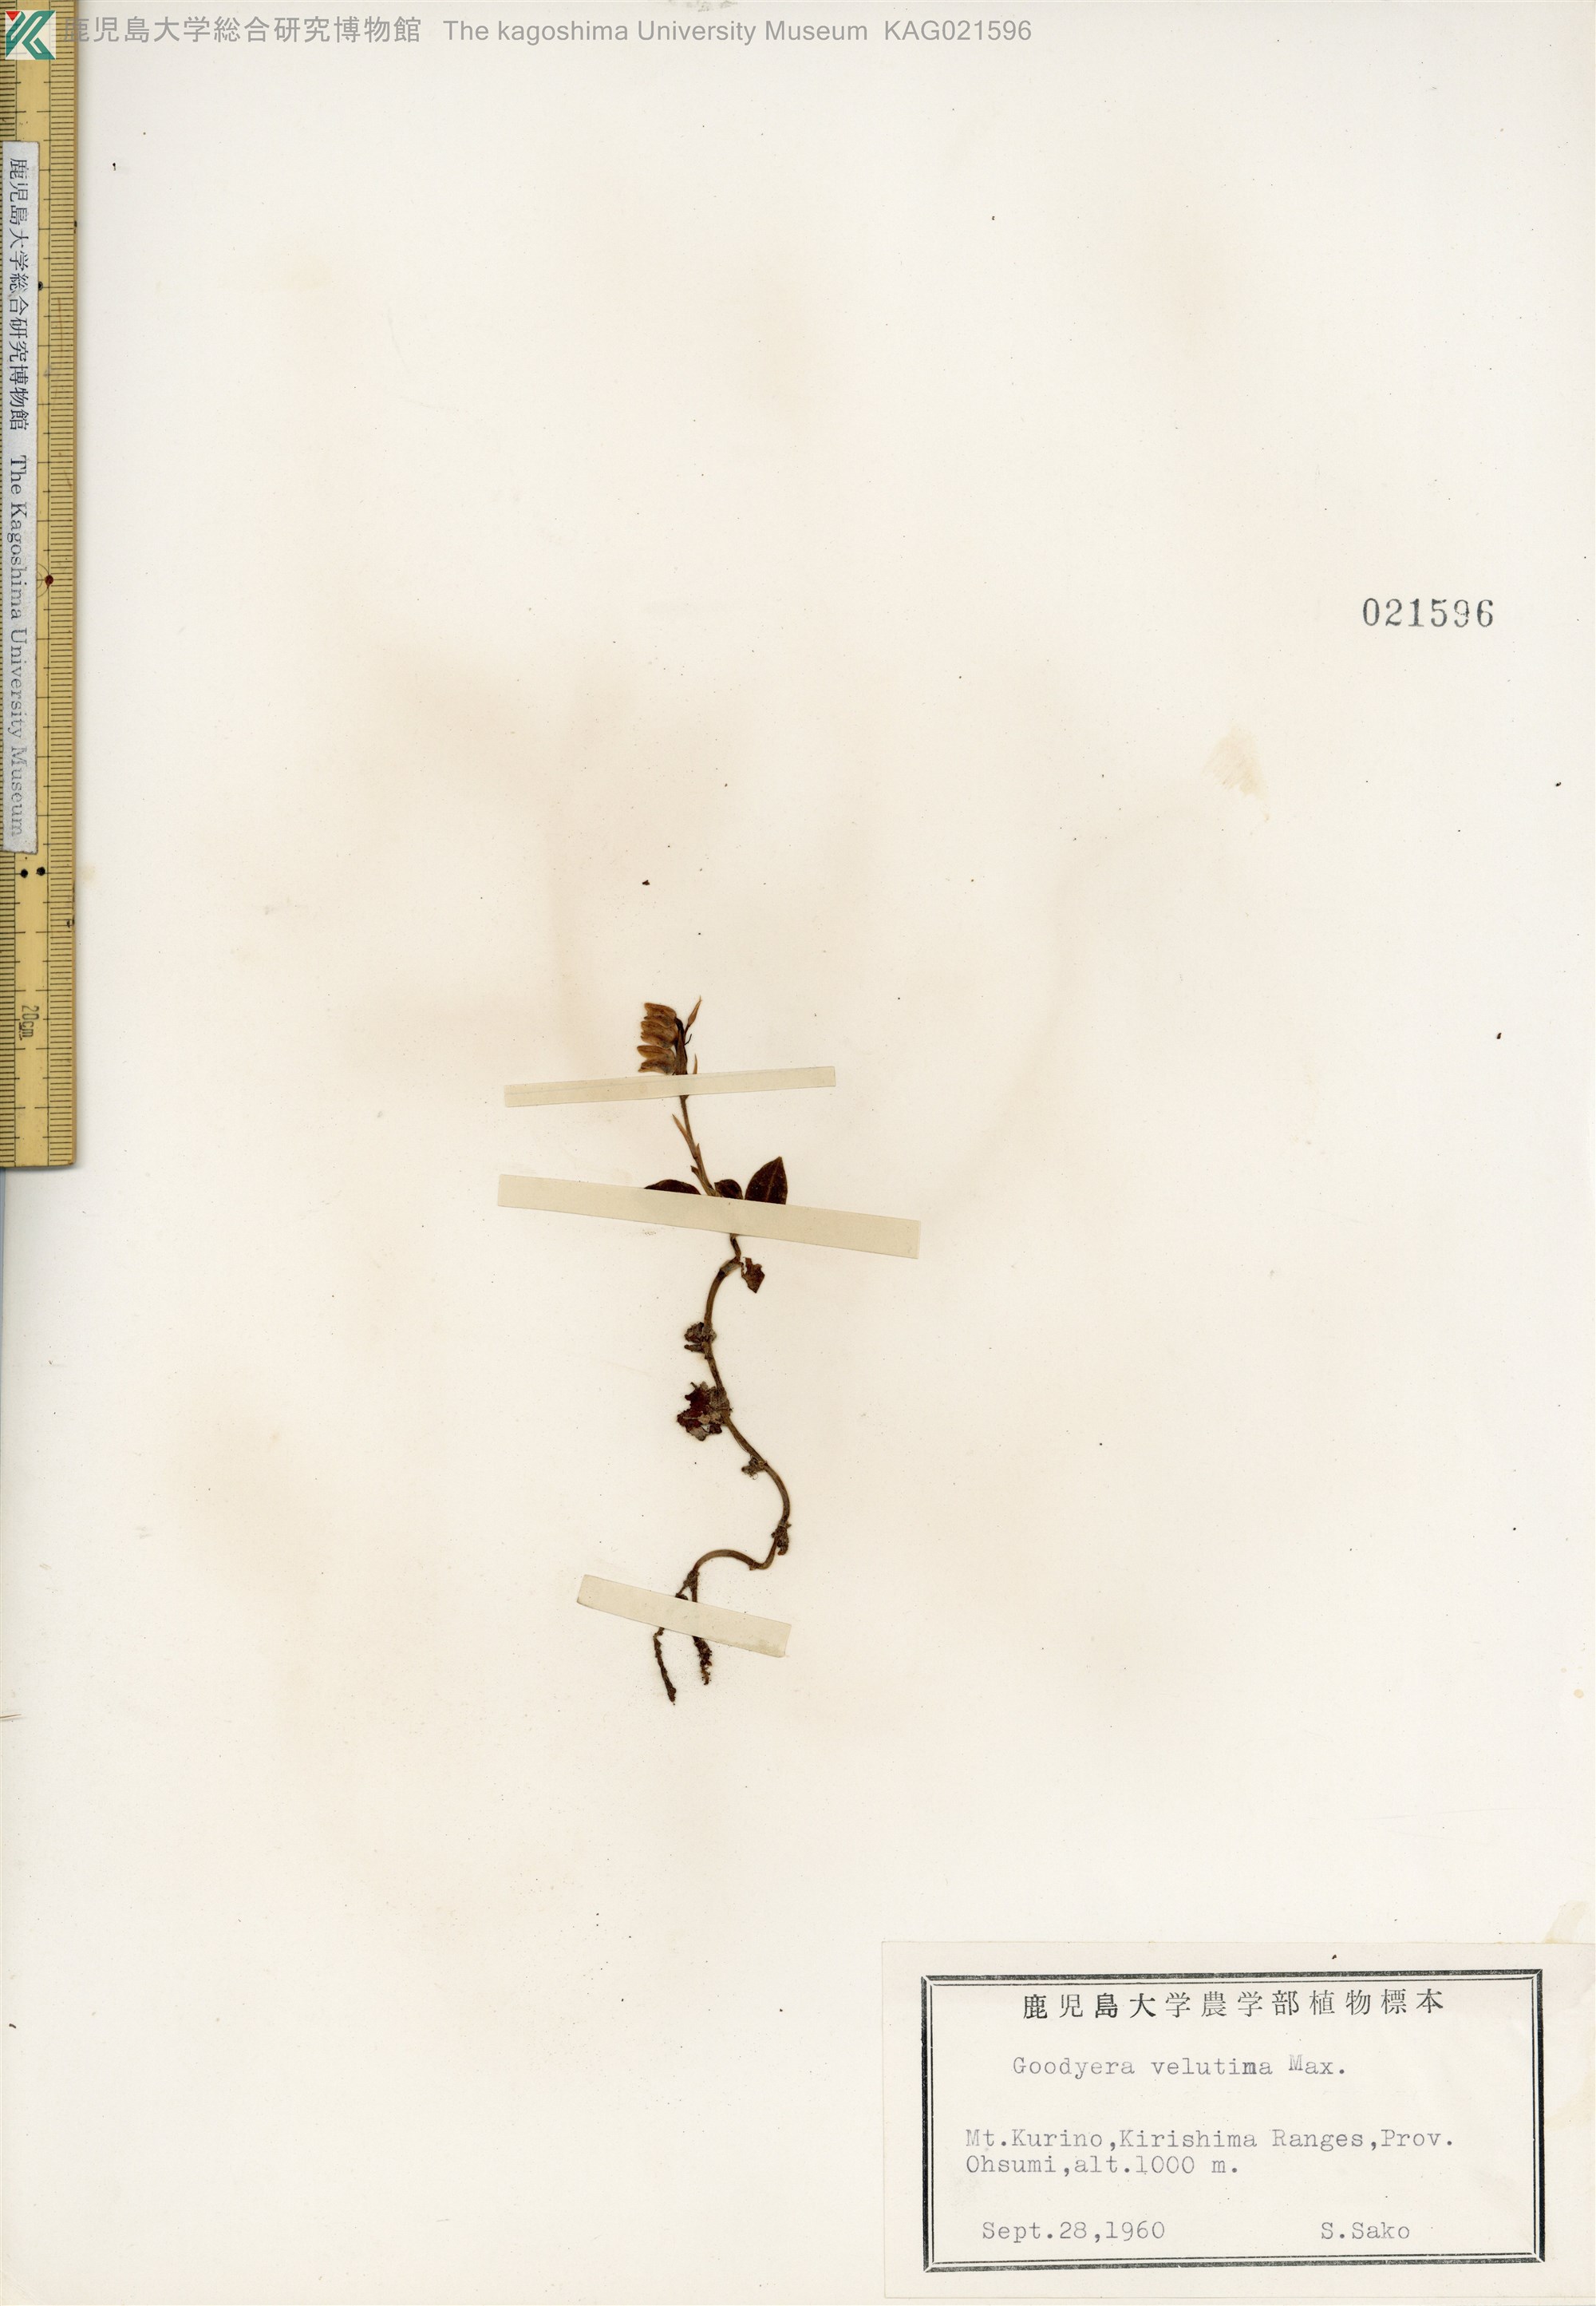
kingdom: Plantae
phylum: Tracheophyta
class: Liliopsida
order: Asparagales
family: Orchidaceae
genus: Goodyera
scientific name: Goodyera velutina
